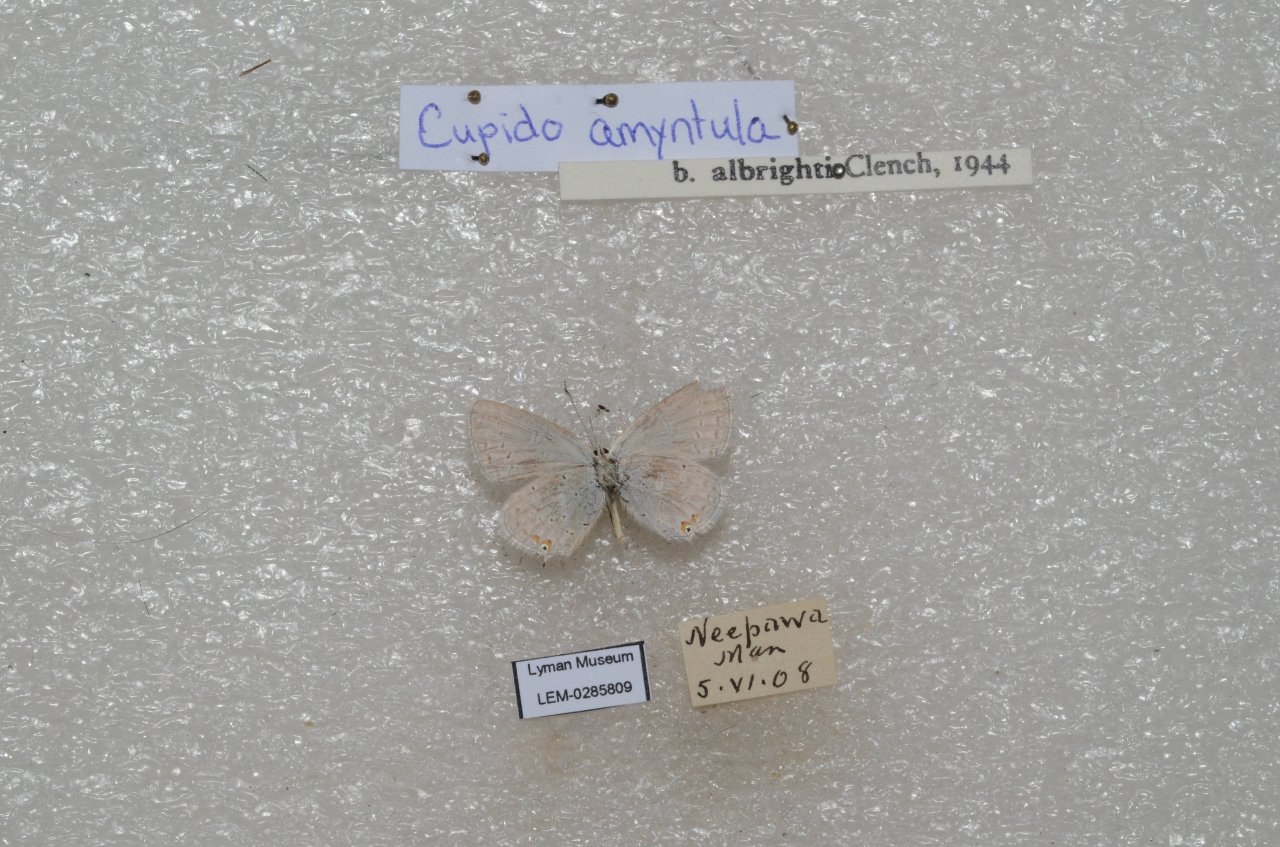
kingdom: Animalia
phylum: Arthropoda
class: Insecta
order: Lepidoptera
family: Lycaenidae
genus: Elkalyce
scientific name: Elkalyce comyntas
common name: Eastern Tailed-Blue
